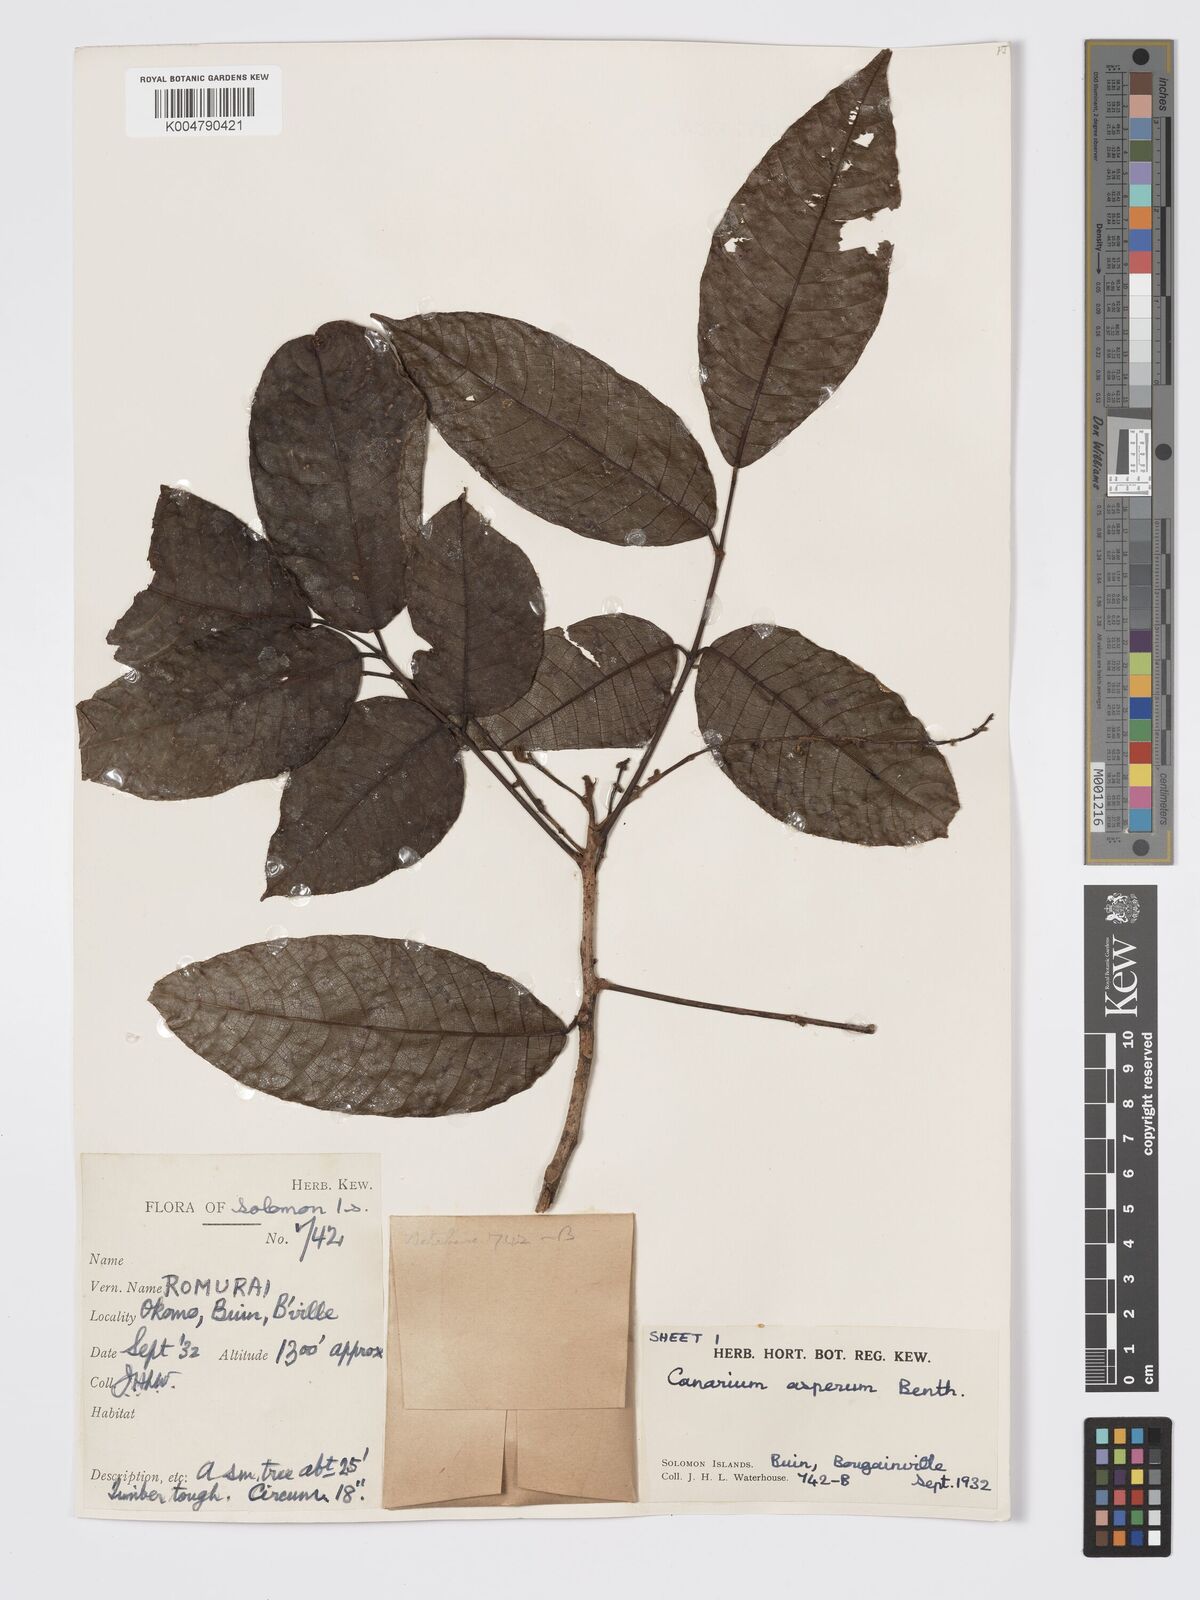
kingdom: Plantae
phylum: Tracheophyta
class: Magnoliopsida
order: Sapindales
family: Burseraceae
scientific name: Burseraceae
